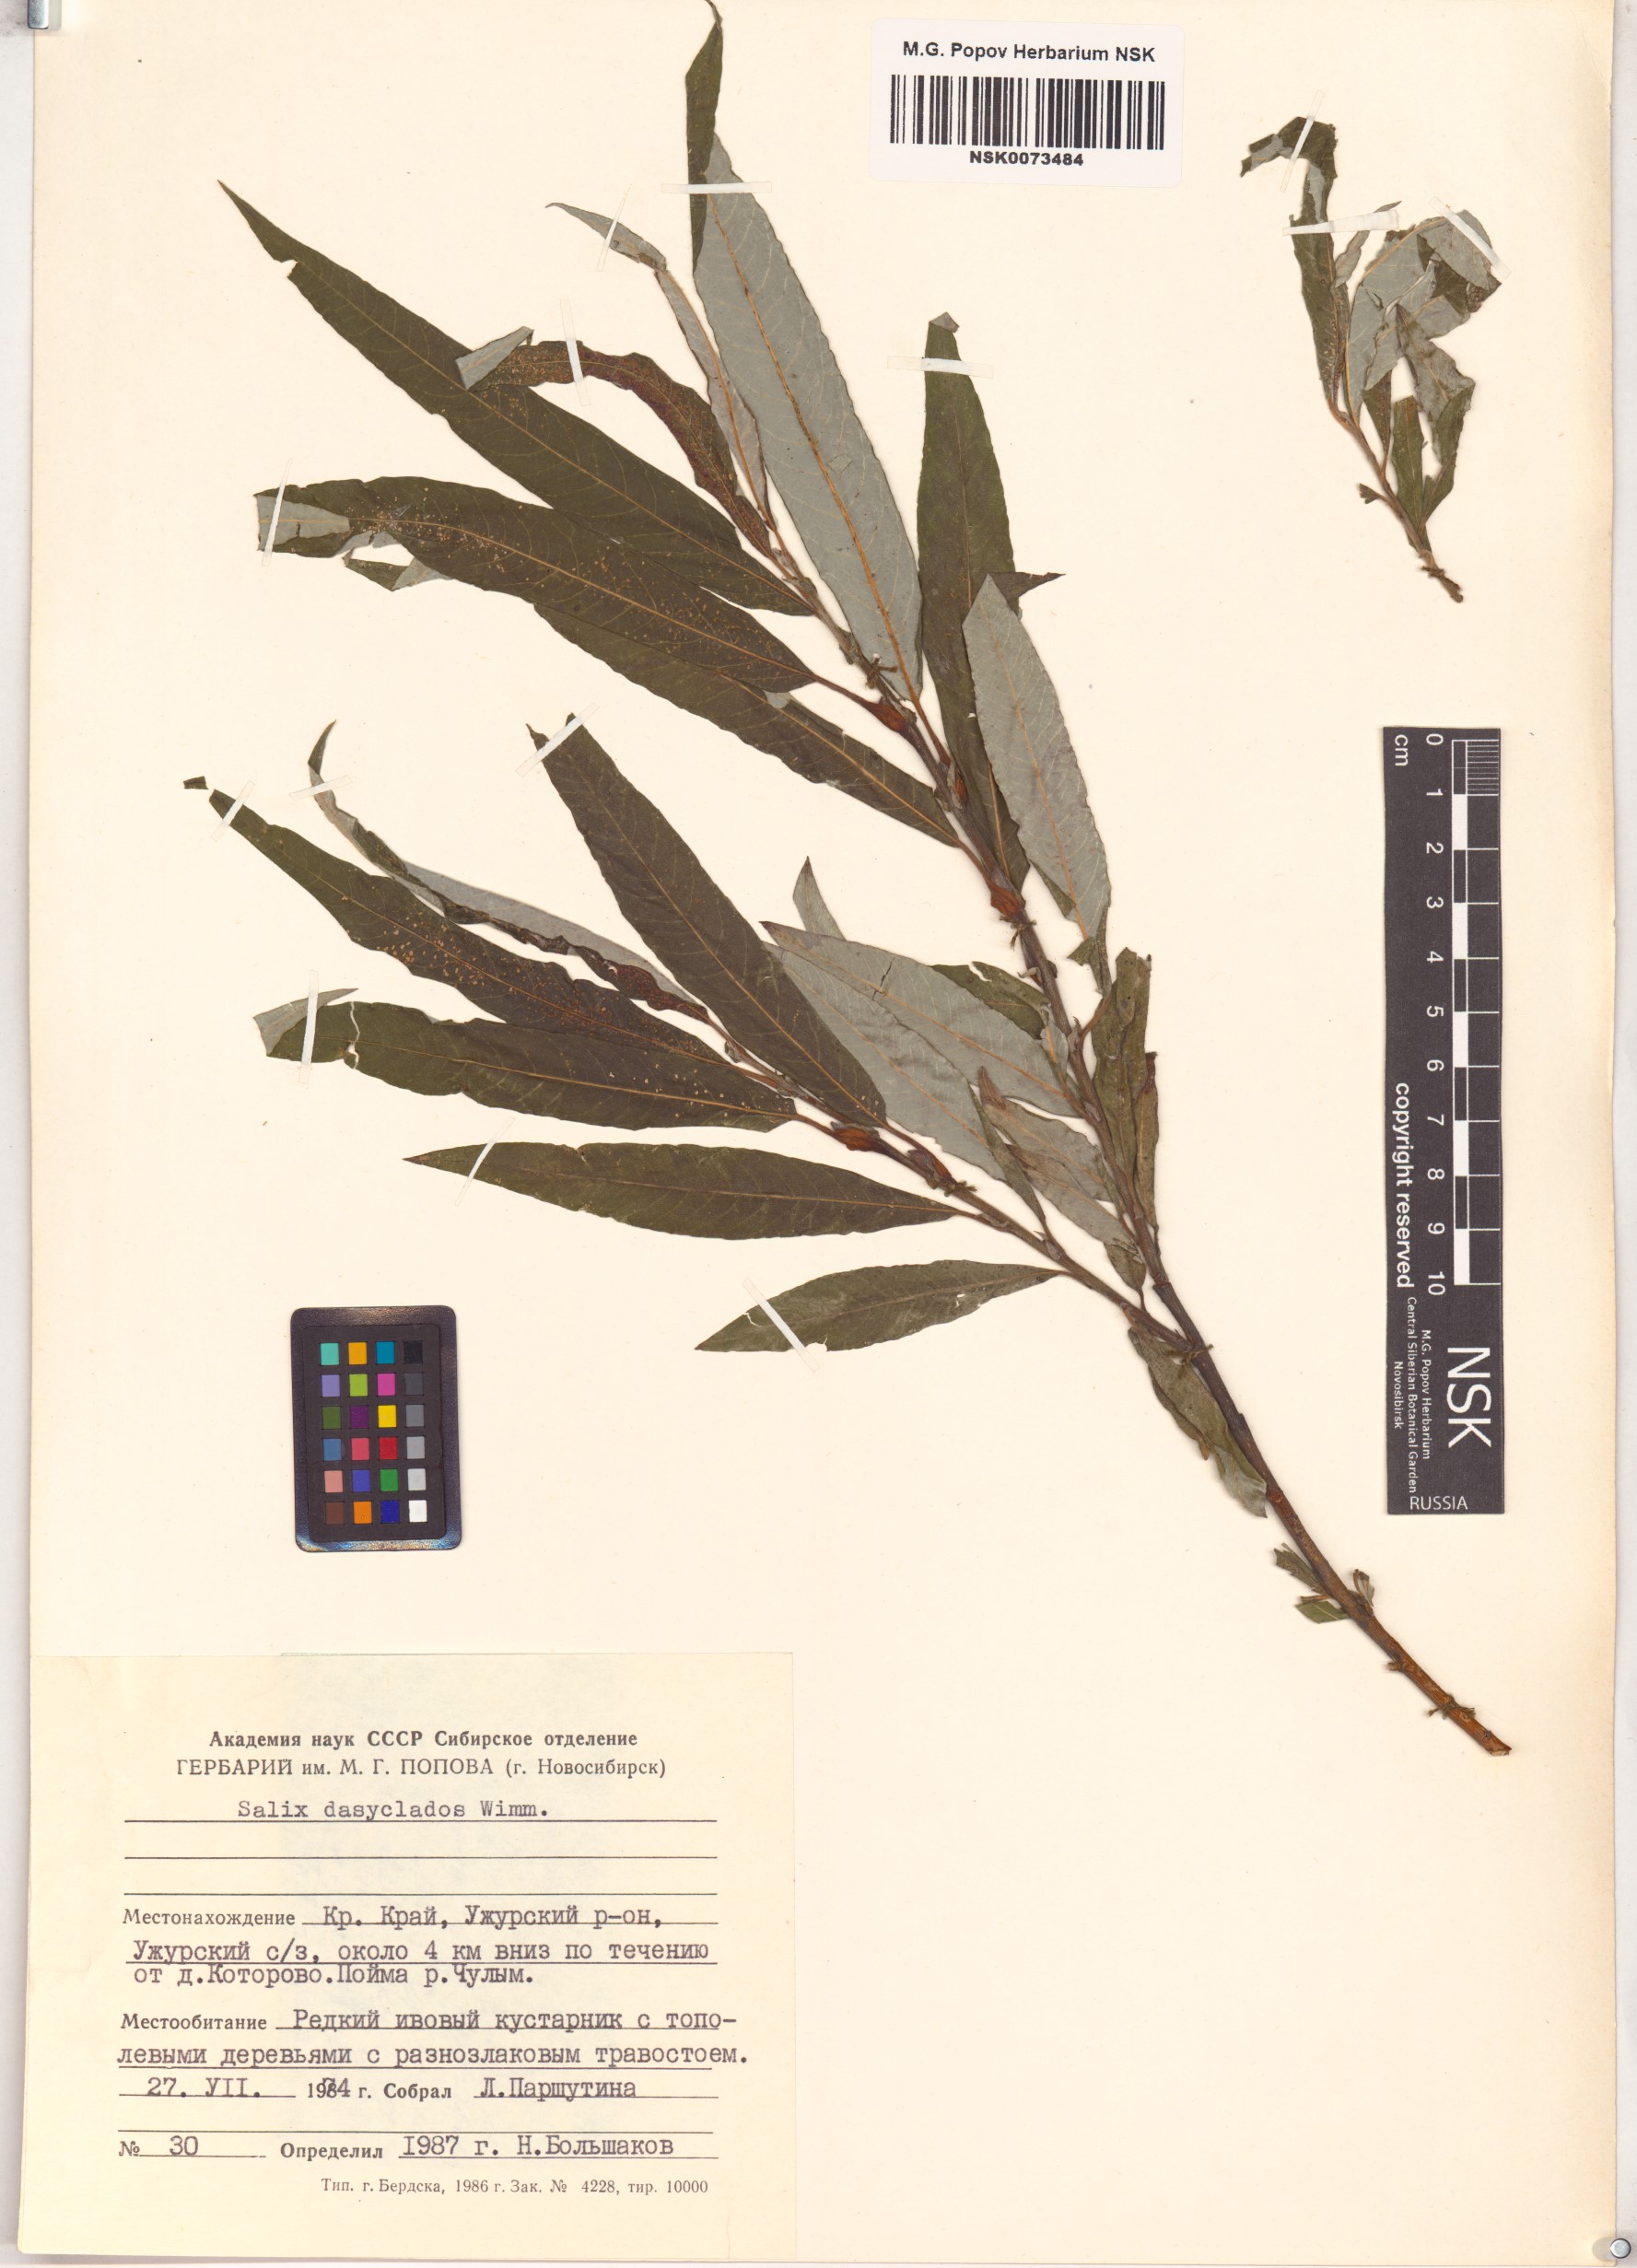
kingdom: Plantae
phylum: Tracheophyta
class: Magnoliopsida
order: Malpighiales
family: Salicaceae
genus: Salix
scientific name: Salix gmelinii
